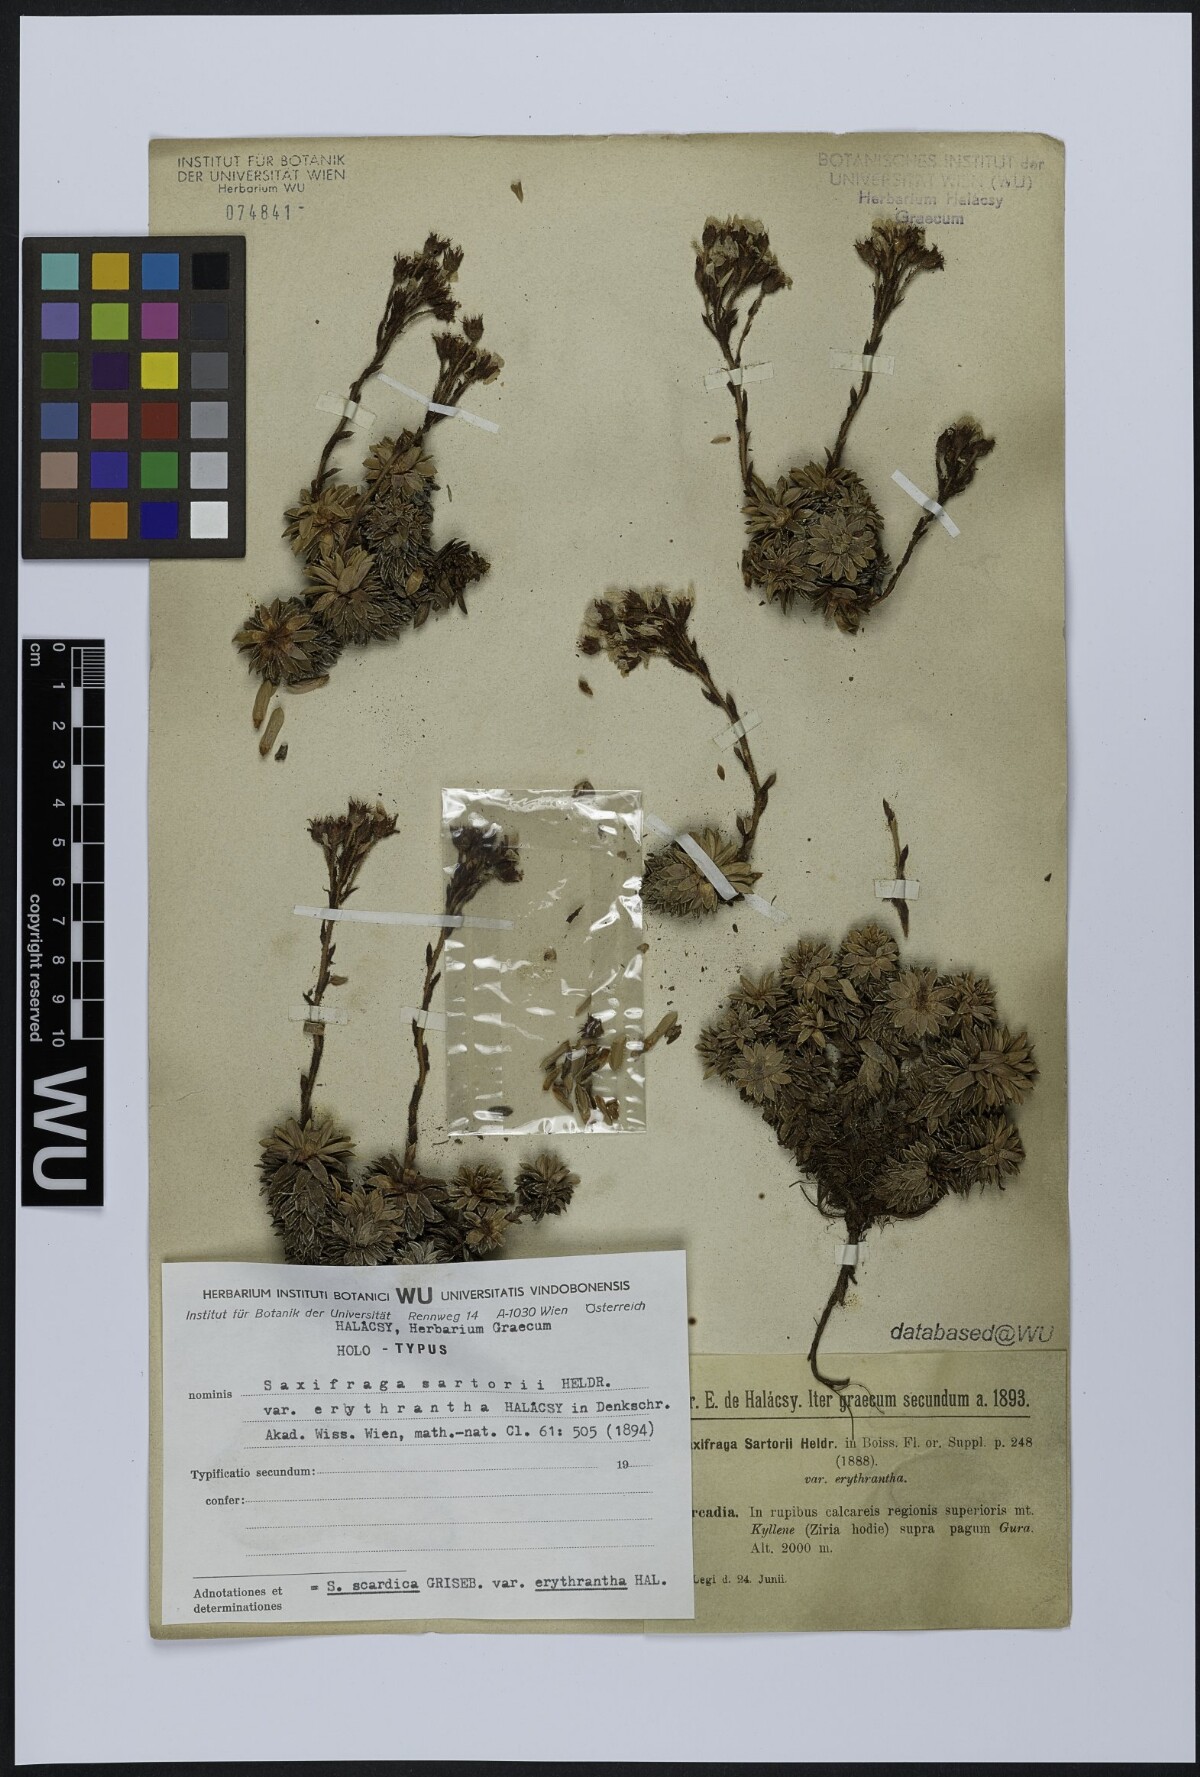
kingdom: Plantae
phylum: Tracheophyta
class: Magnoliopsida
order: Saxifragales
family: Saxifragaceae
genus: Saxifraga
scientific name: Saxifraga scardica
